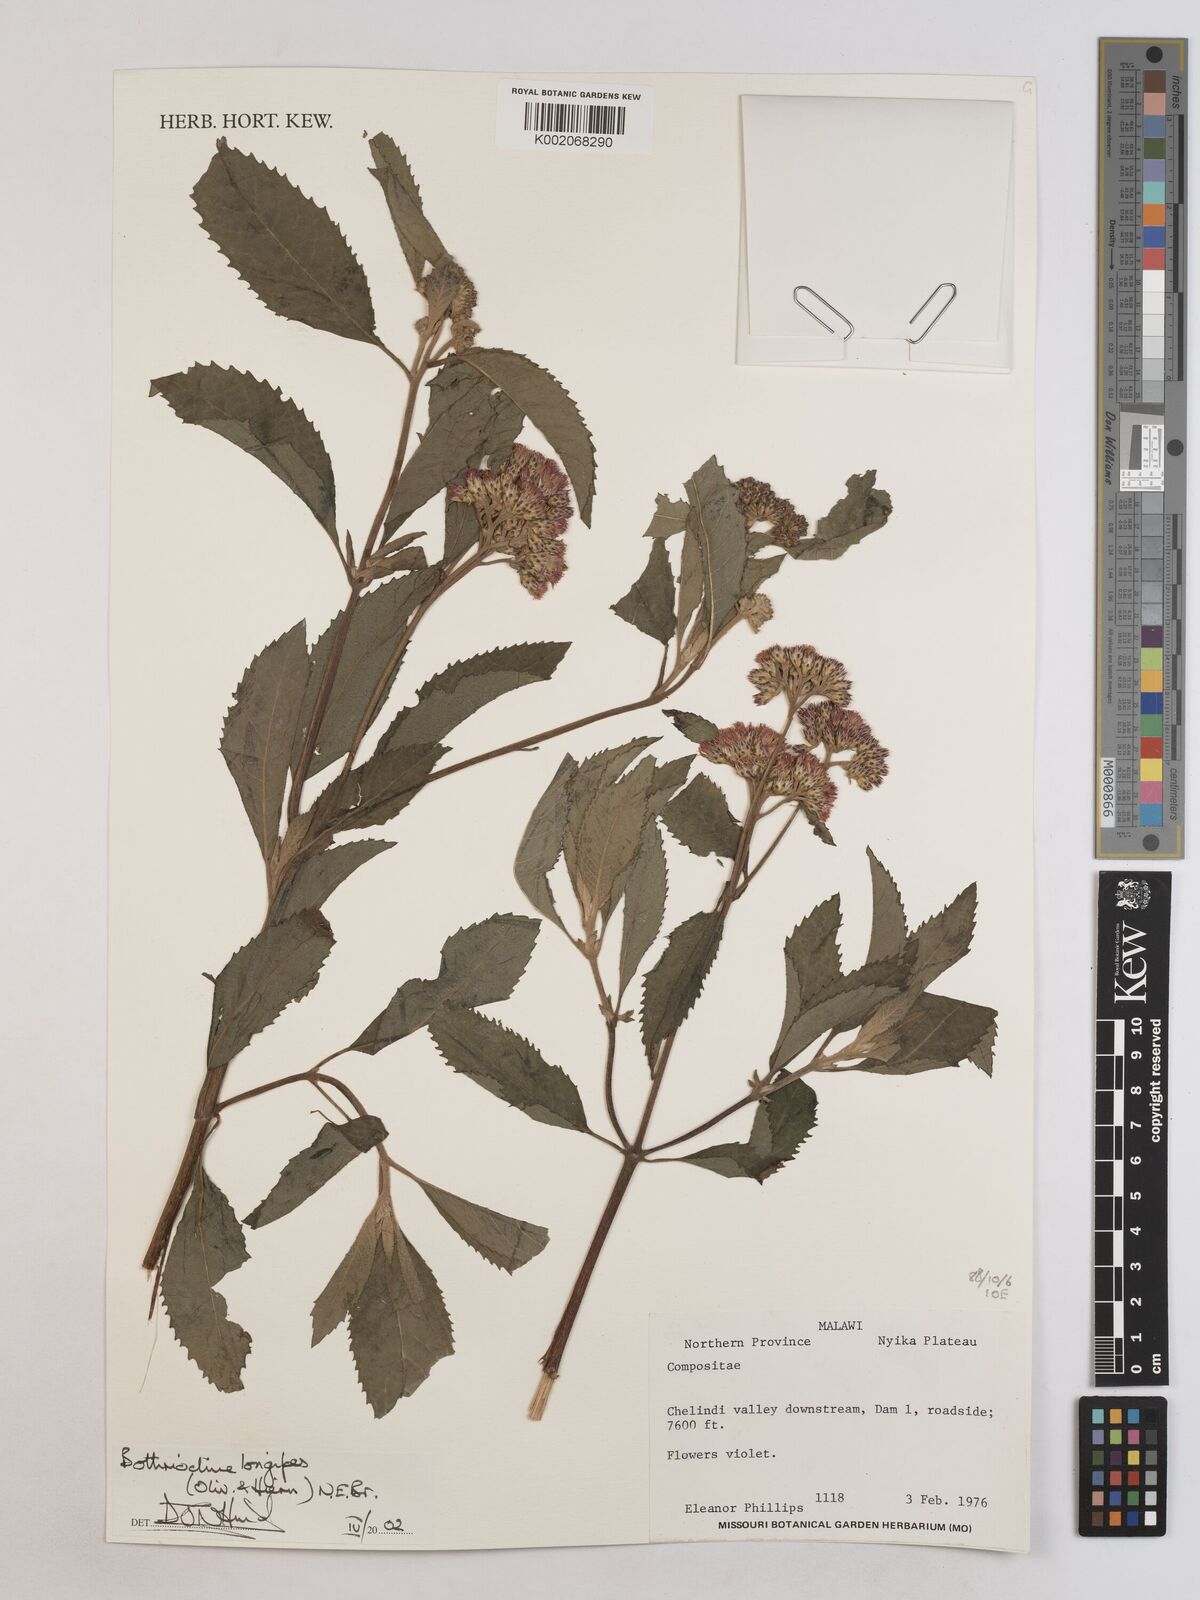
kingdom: Plantae
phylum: Tracheophyta
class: Magnoliopsida
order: Asterales
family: Asteraceae
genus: Bothriocline
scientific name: Bothriocline longipes
